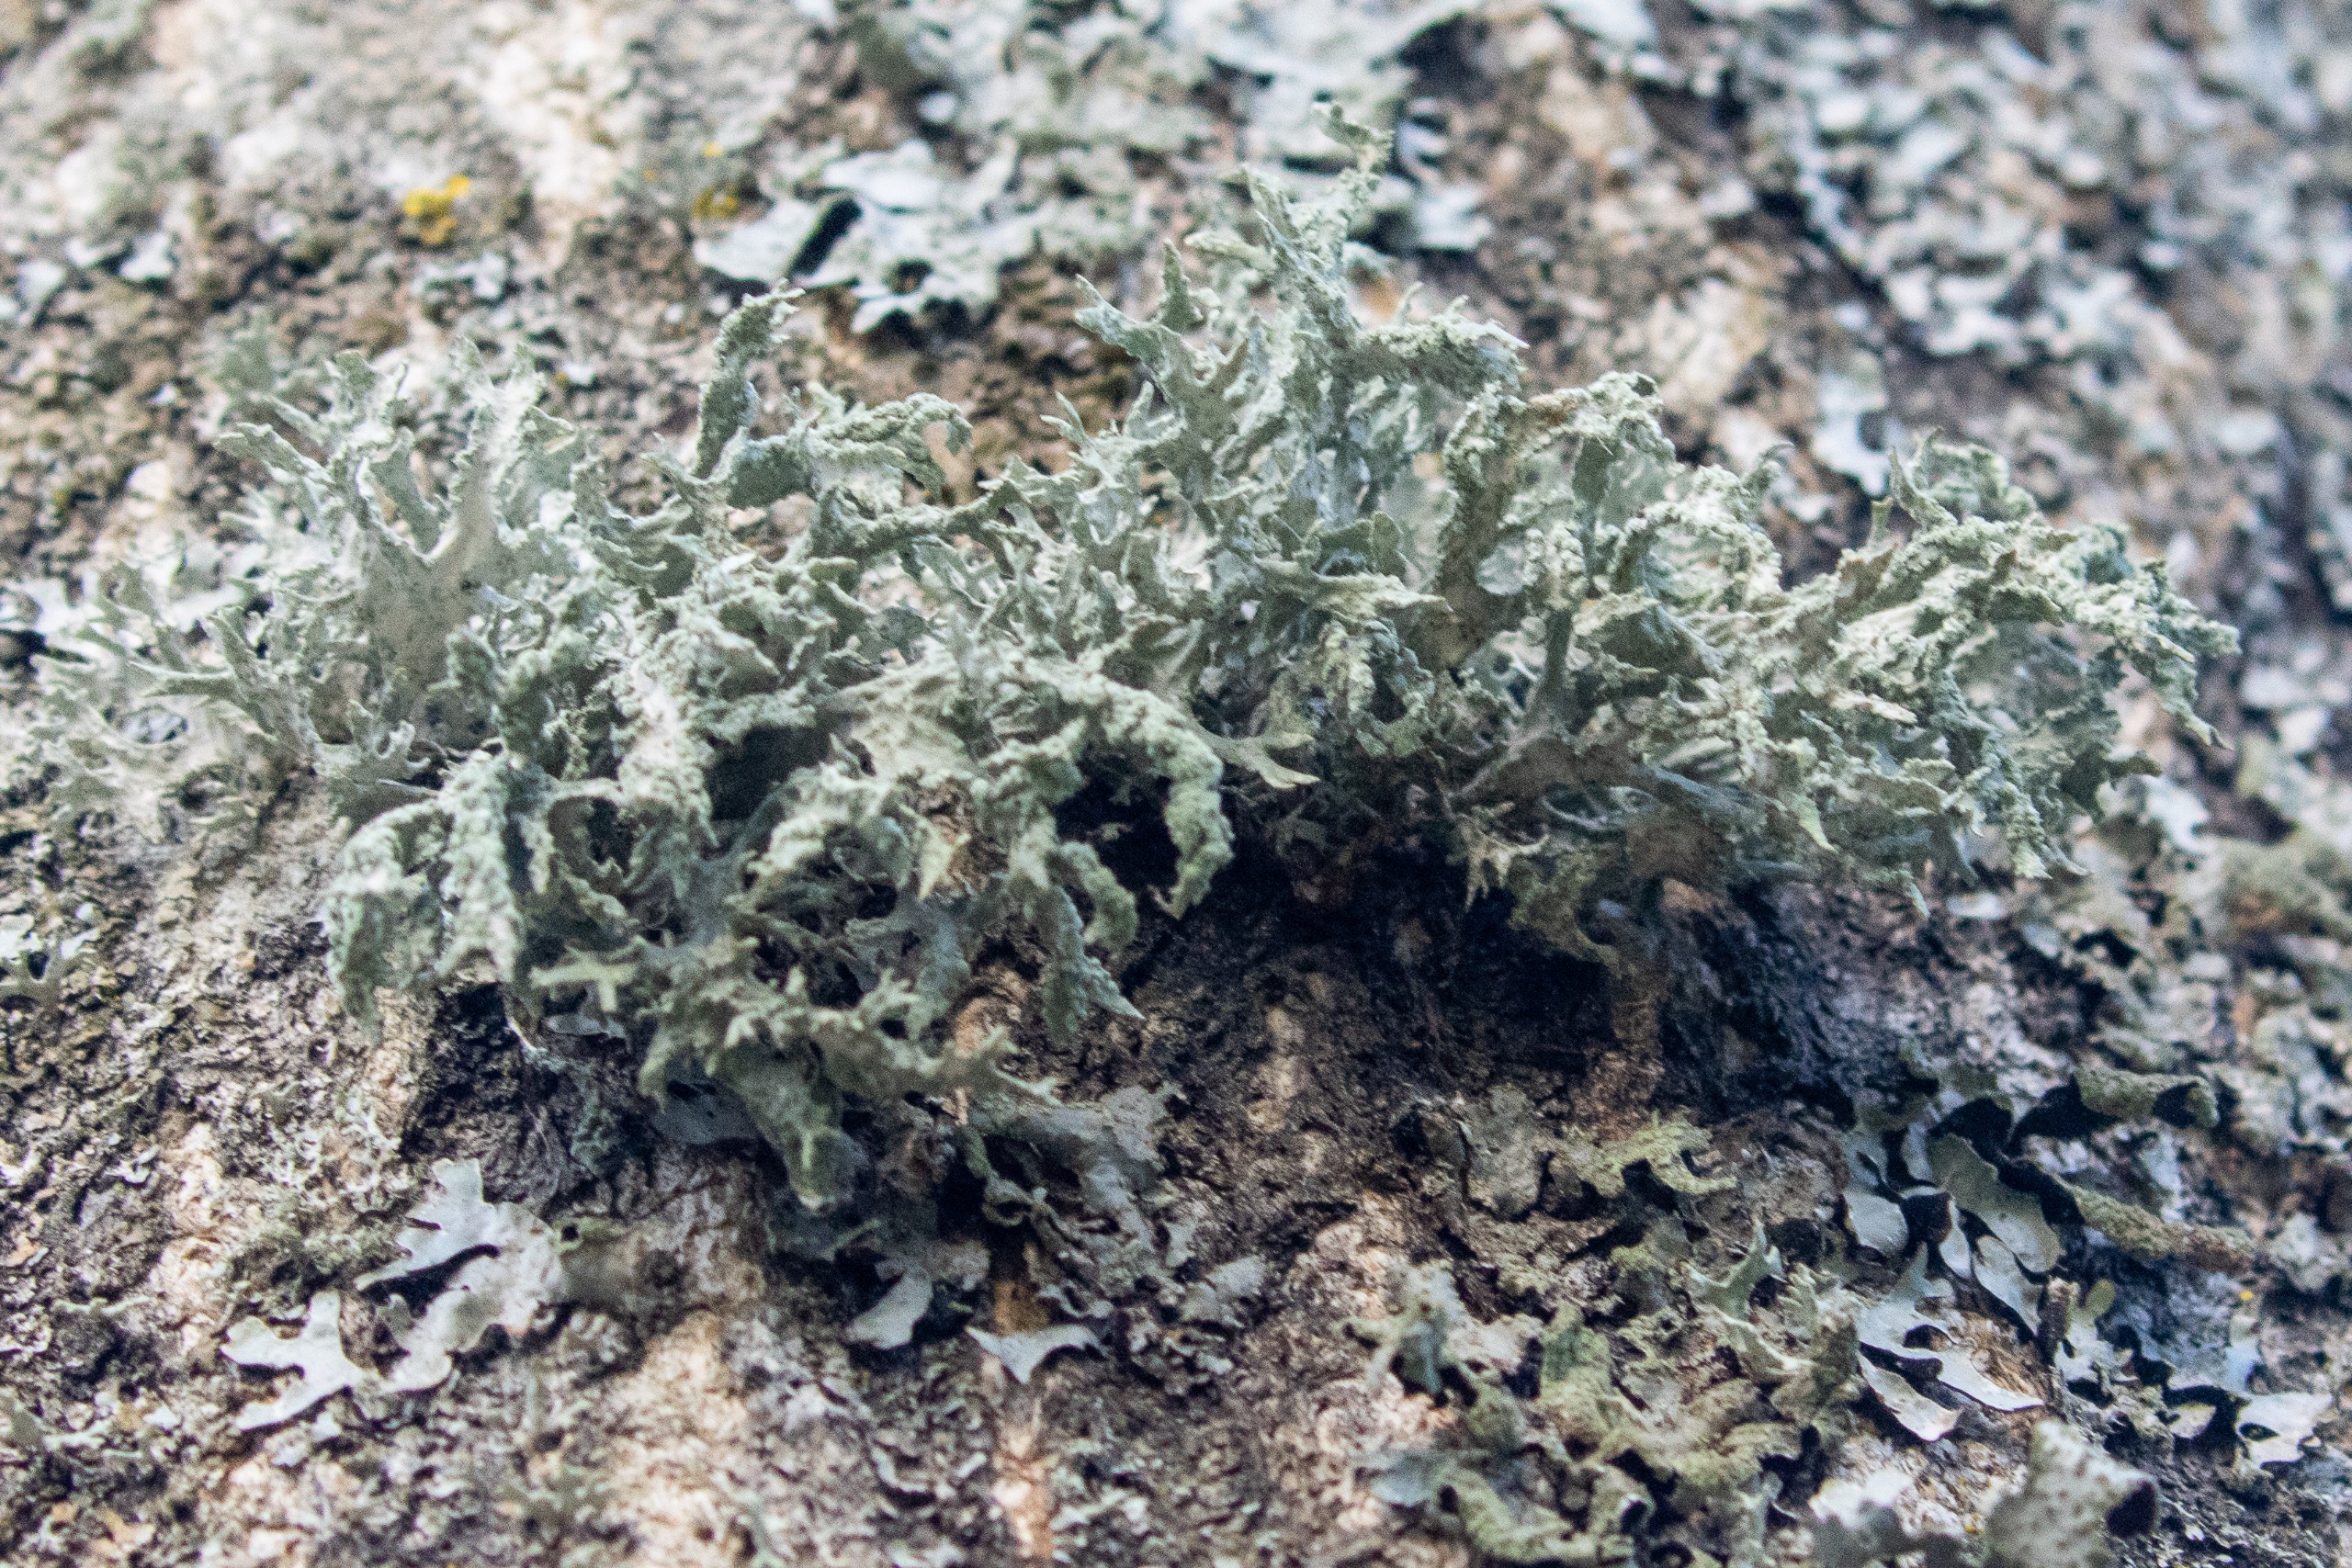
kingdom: Fungi
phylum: Ascomycota
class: Lecanoromycetes
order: Lecanorales
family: Parmeliaceae
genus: Evernia
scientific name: Evernia prunastri
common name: Almindelig slåenlav
